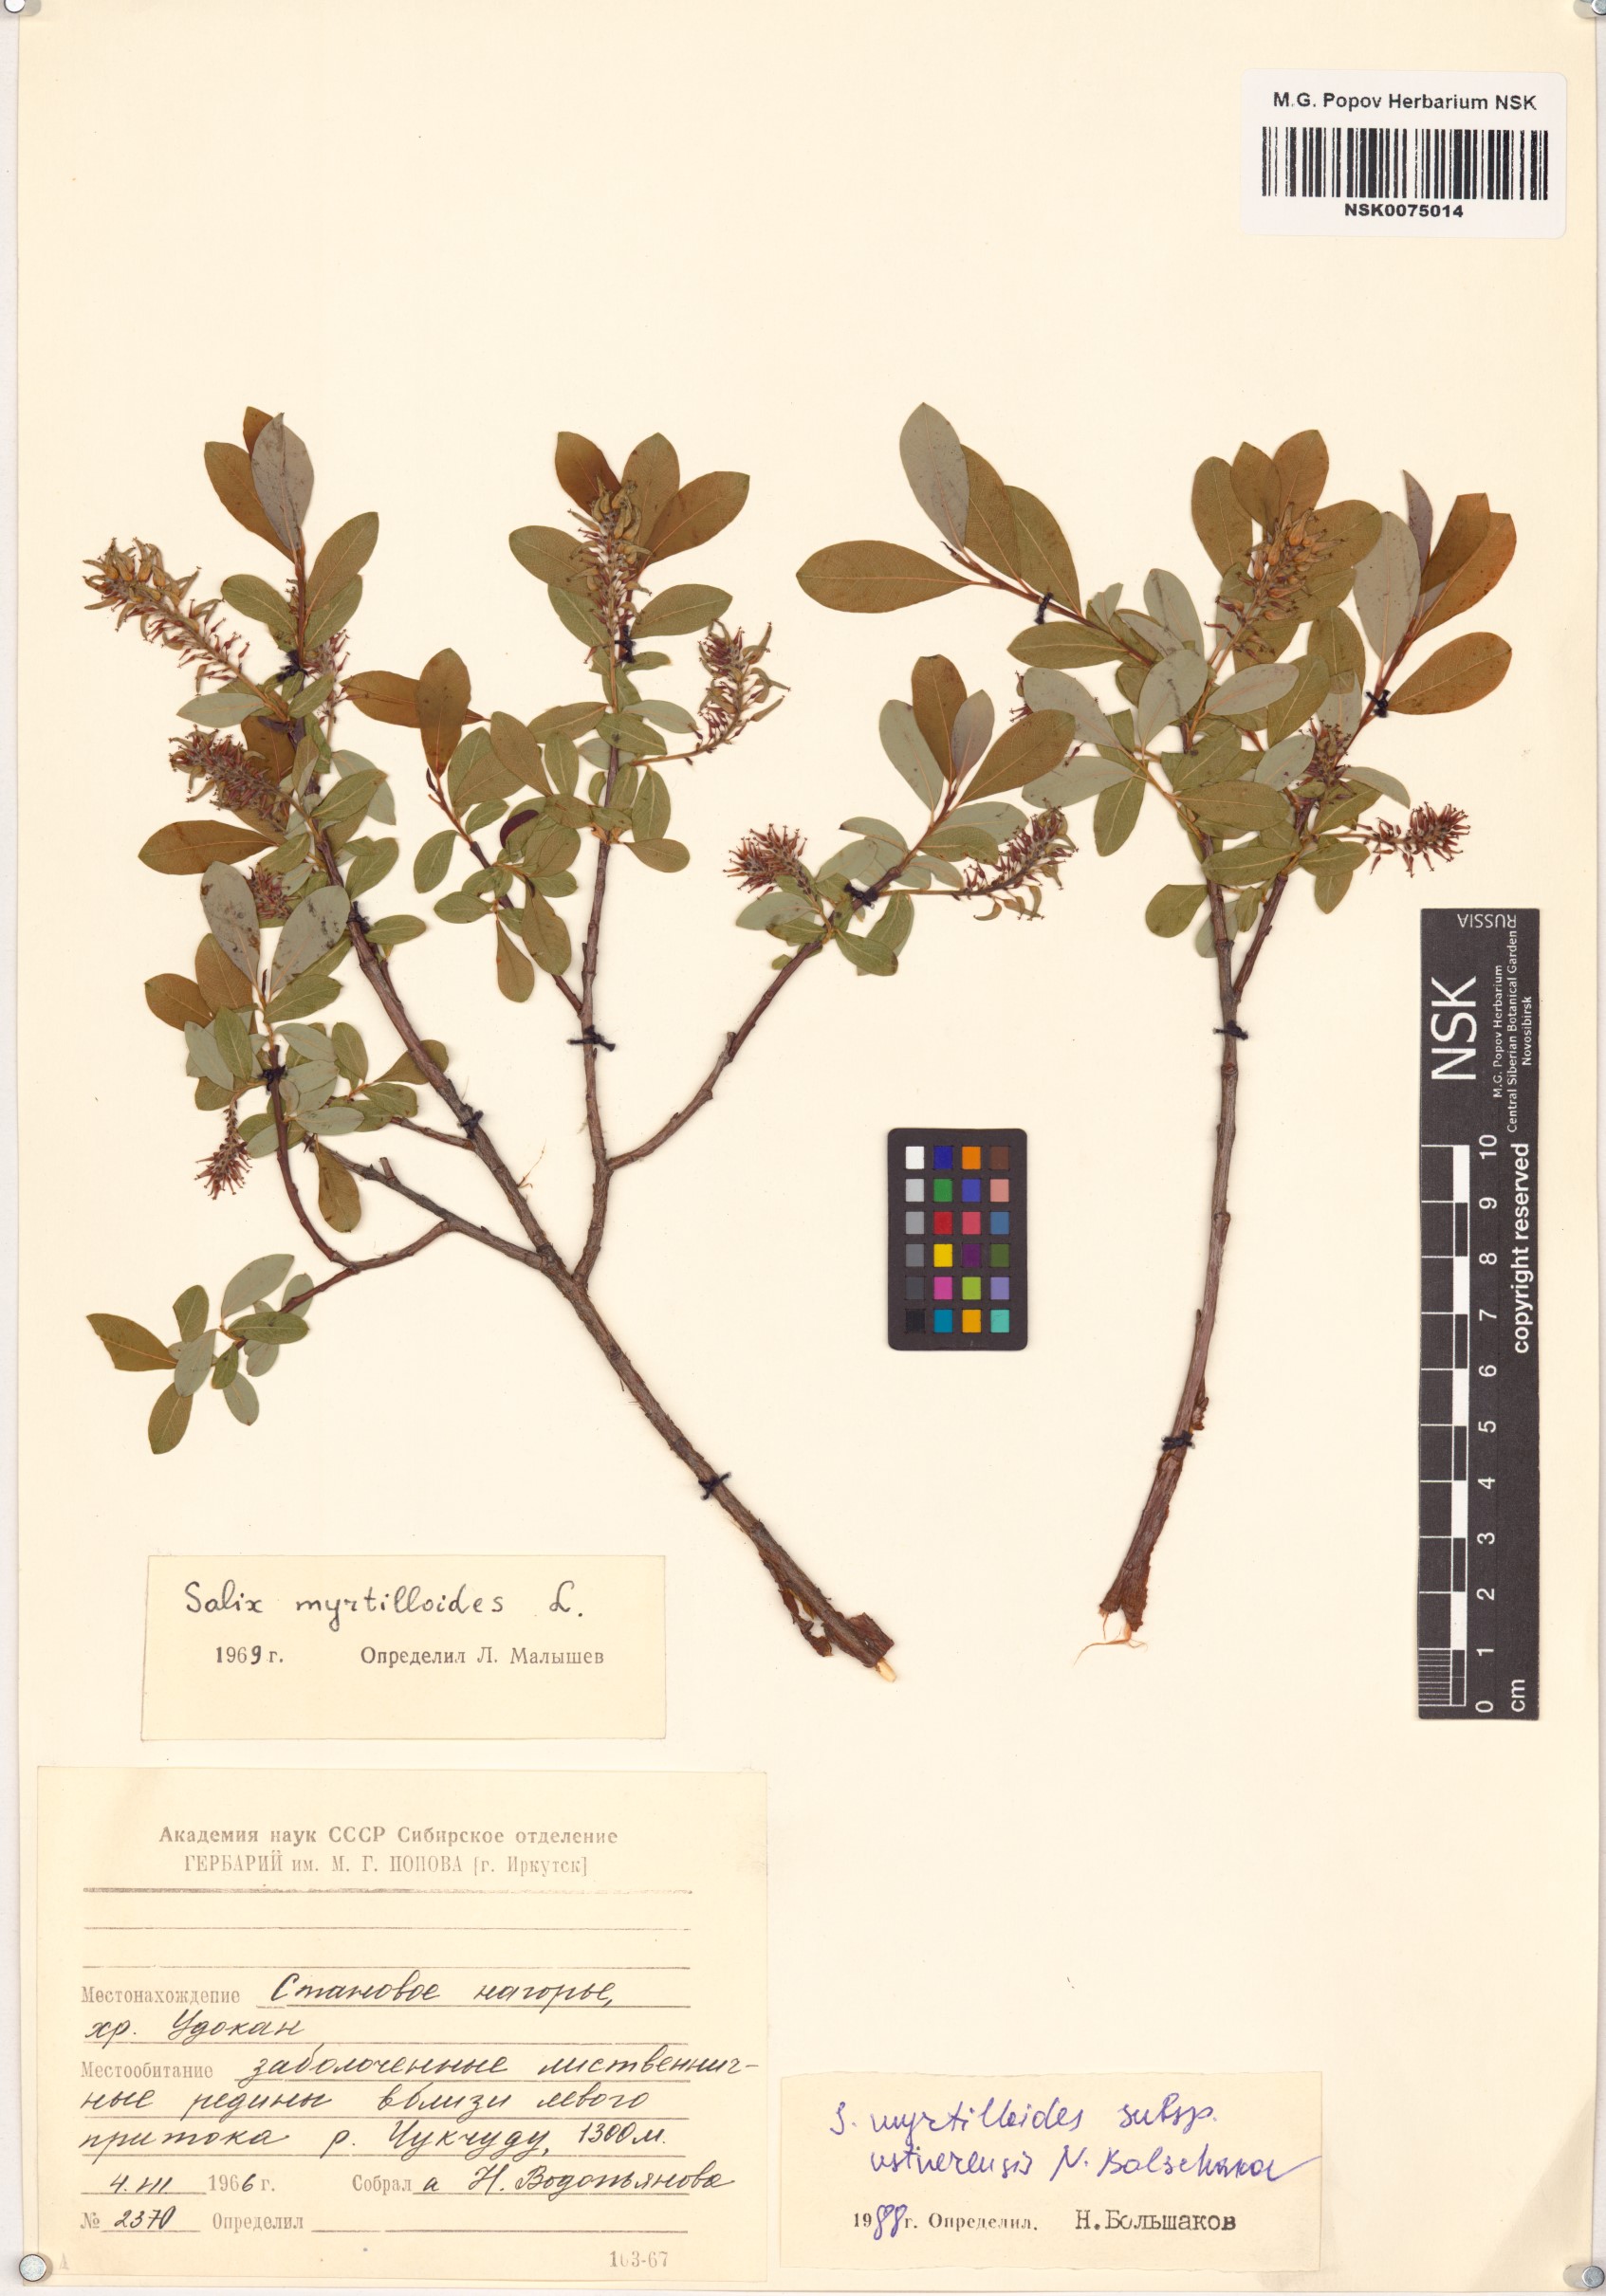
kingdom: Plantae
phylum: Tracheophyta
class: Magnoliopsida
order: Malpighiales
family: Salicaceae
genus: Salix
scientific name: Salix ustnerensis
